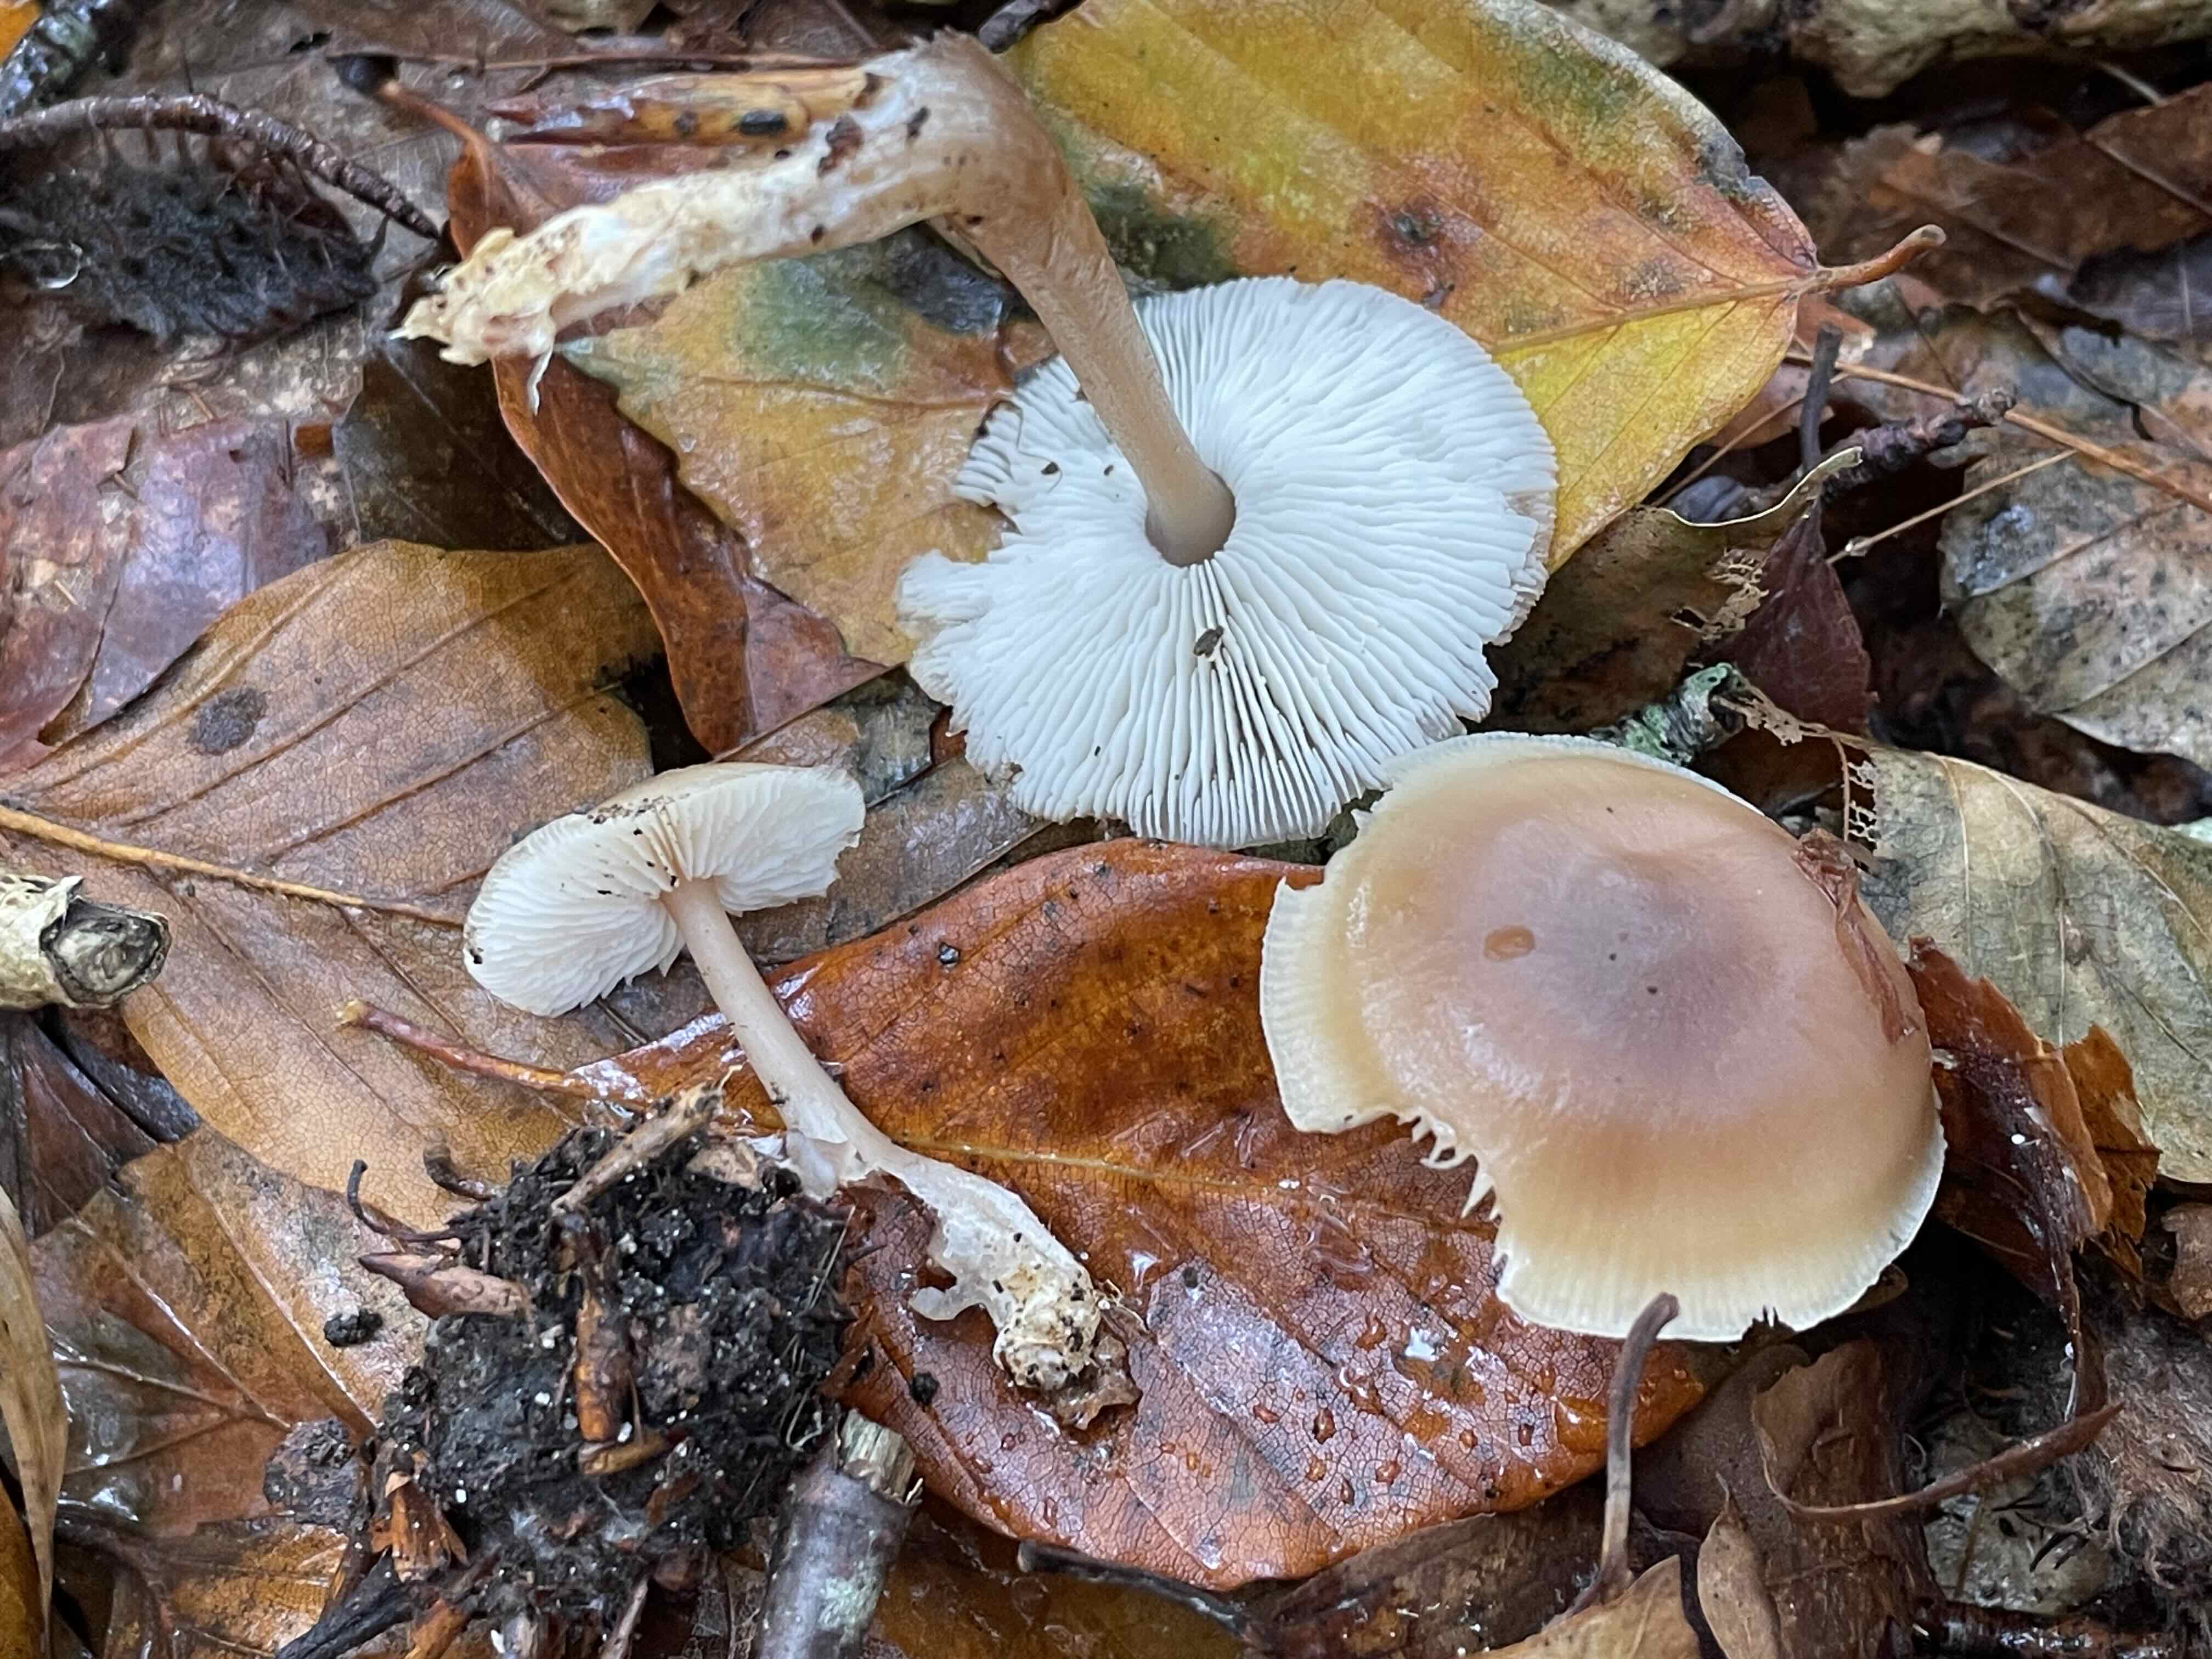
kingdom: Fungi
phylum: Basidiomycota
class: Agaricomycetes
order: Agaricales
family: Omphalotaceae
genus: Rhodocollybia
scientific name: Rhodocollybia butyracea
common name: keglestokket fladhat
